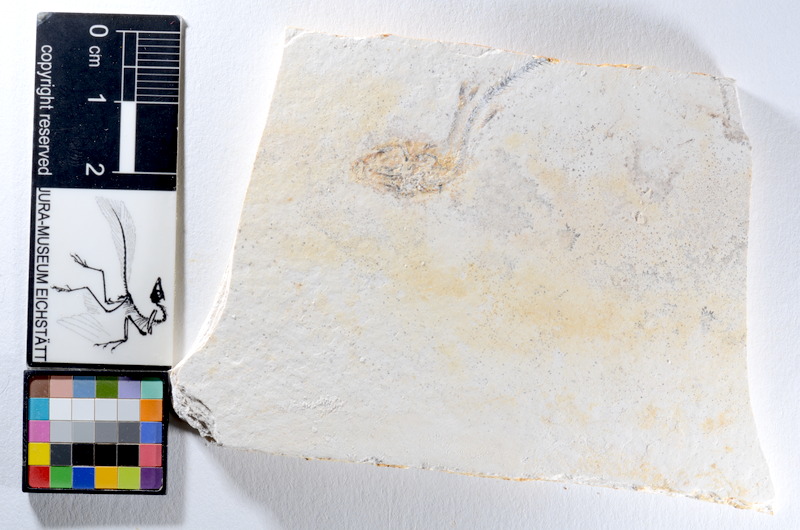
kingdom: Animalia
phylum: Chordata
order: Salmoniformes
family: Orthogonikleithridae
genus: Orthogonikleithrus
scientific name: Orthogonikleithrus hoelli
